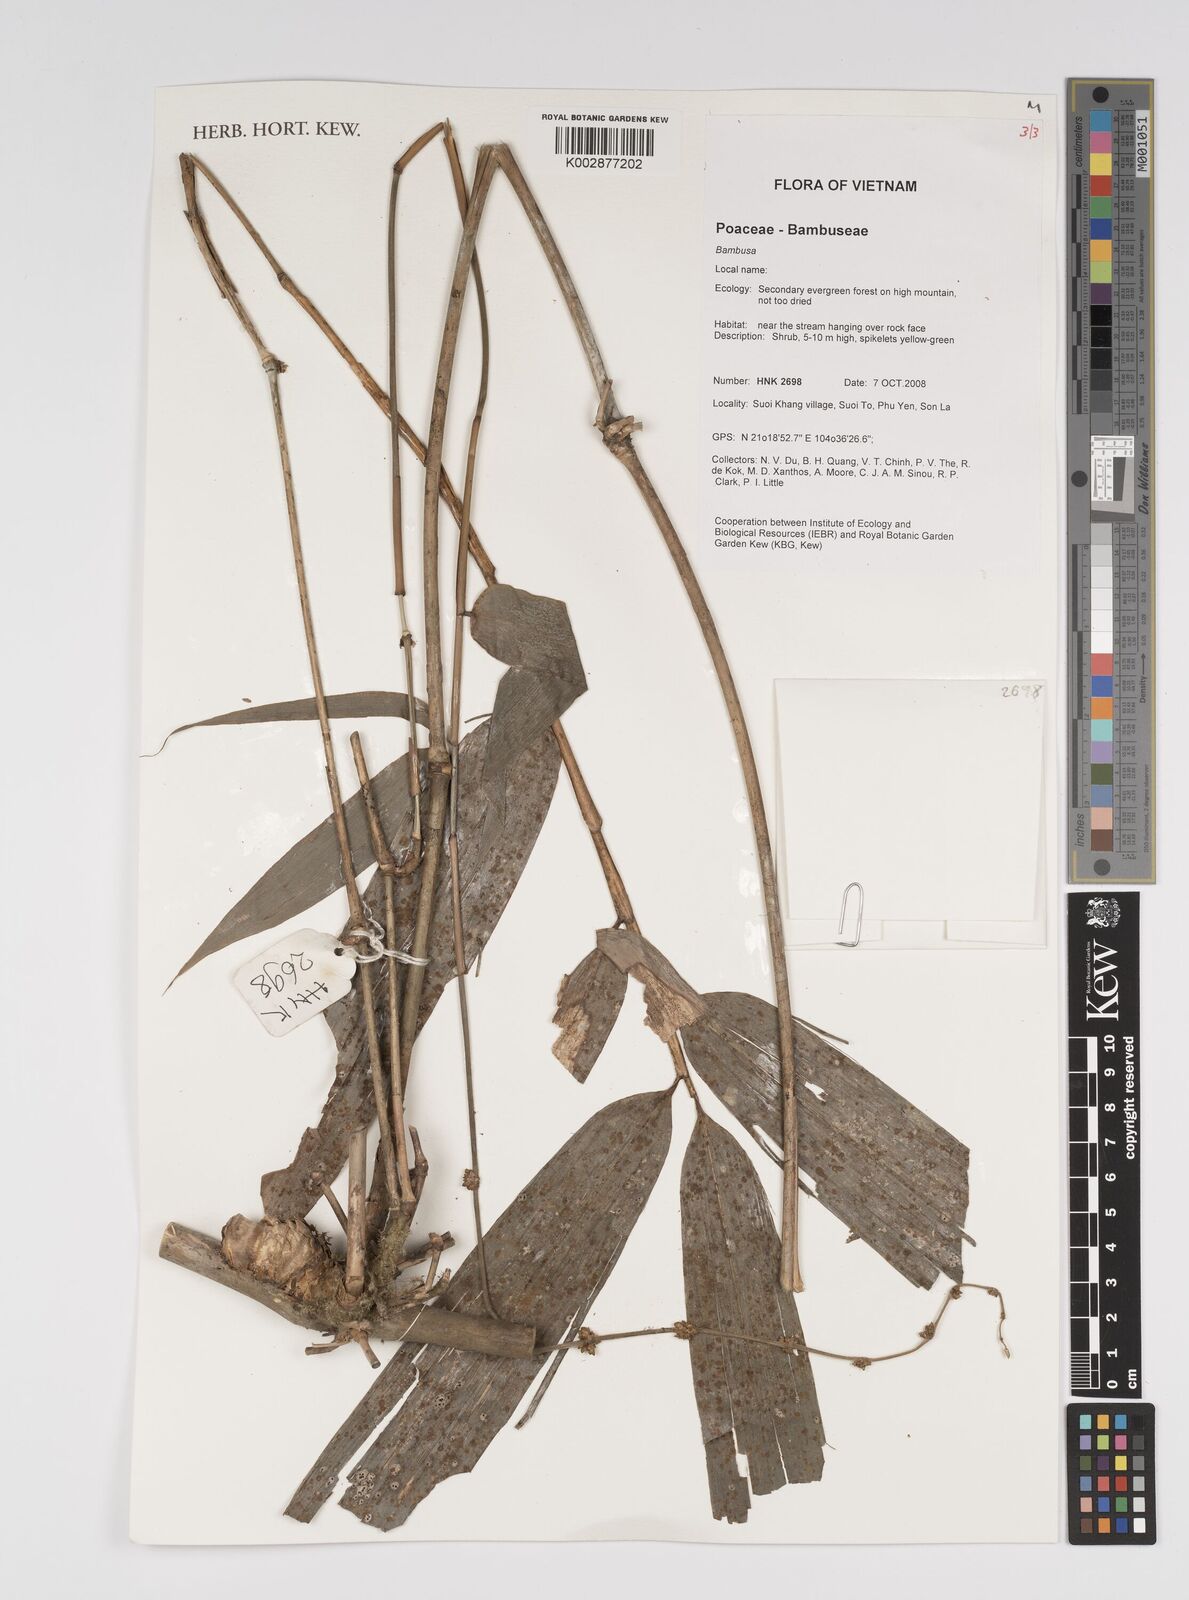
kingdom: Plantae
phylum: Tracheophyta
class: Liliopsida
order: Poales
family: Poaceae
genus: Bambusa
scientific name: Bambusa
